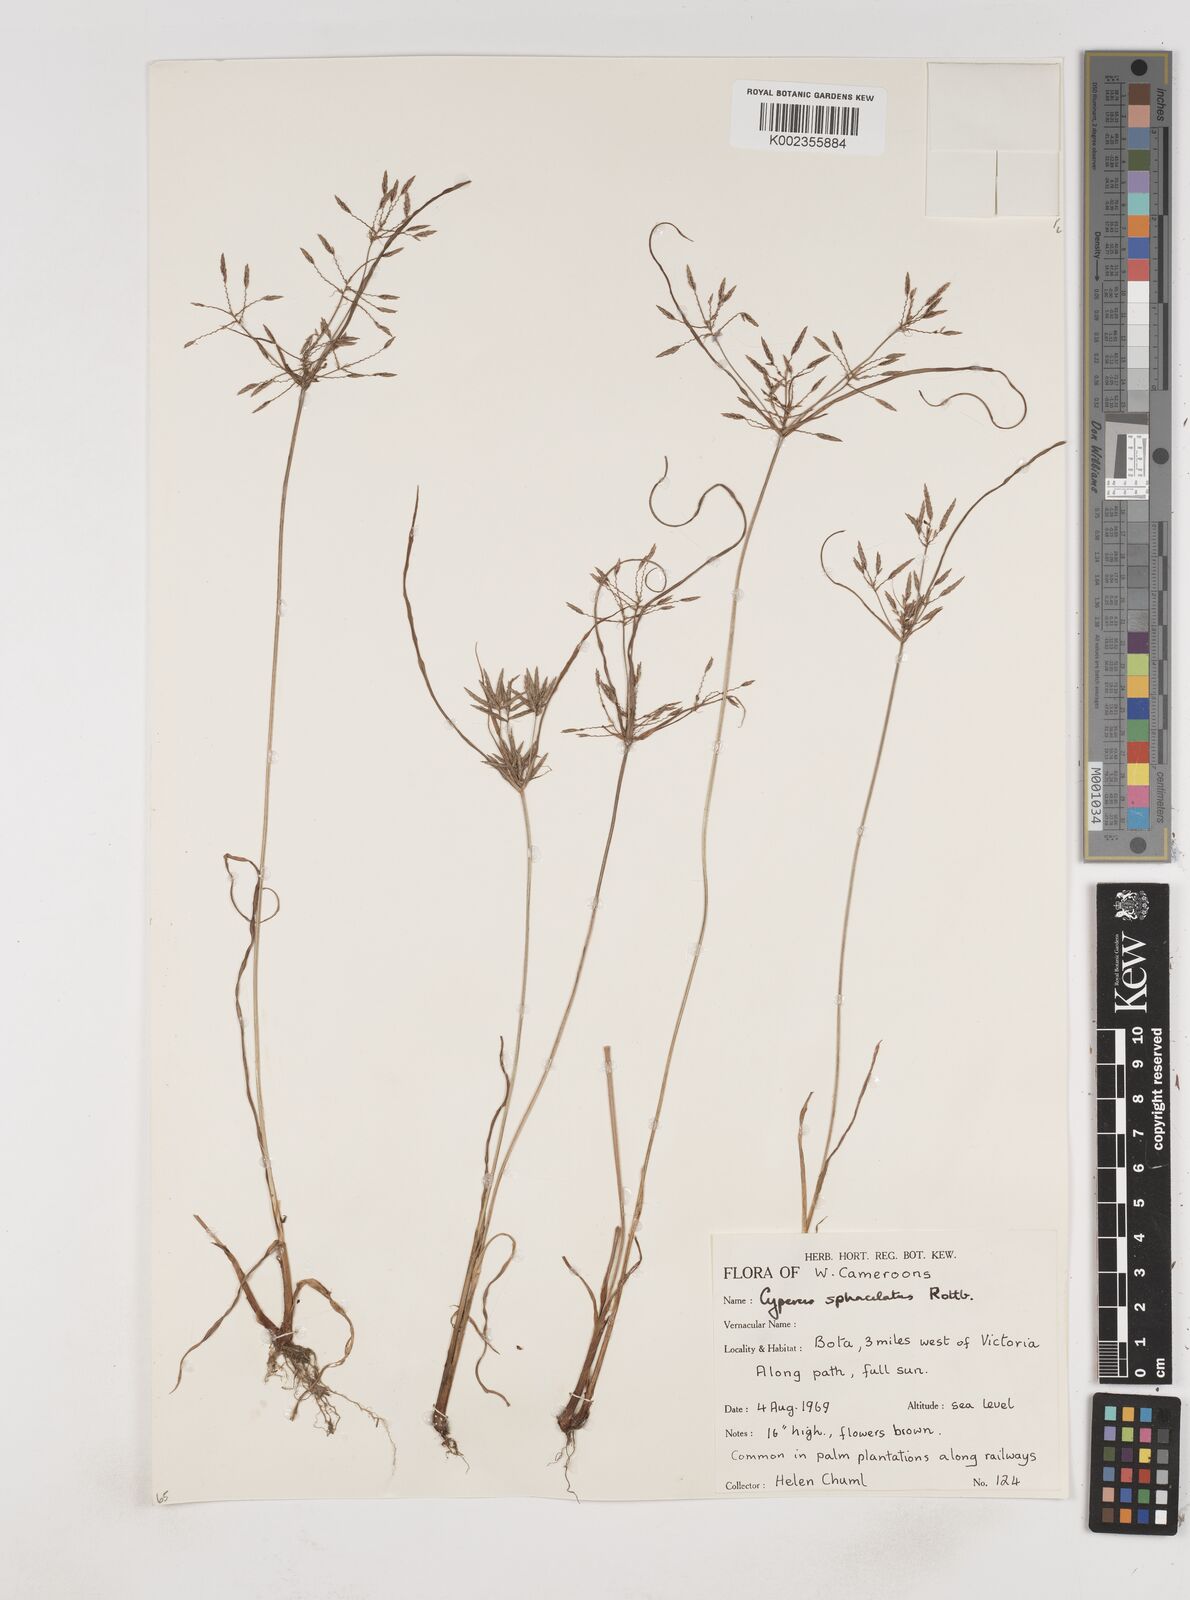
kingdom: Plantae
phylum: Tracheophyta
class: Liliopsida
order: Poales
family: Cyperaceae
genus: Cyperus
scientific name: Cyperus sphacelatus
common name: Roadside flatsedge
